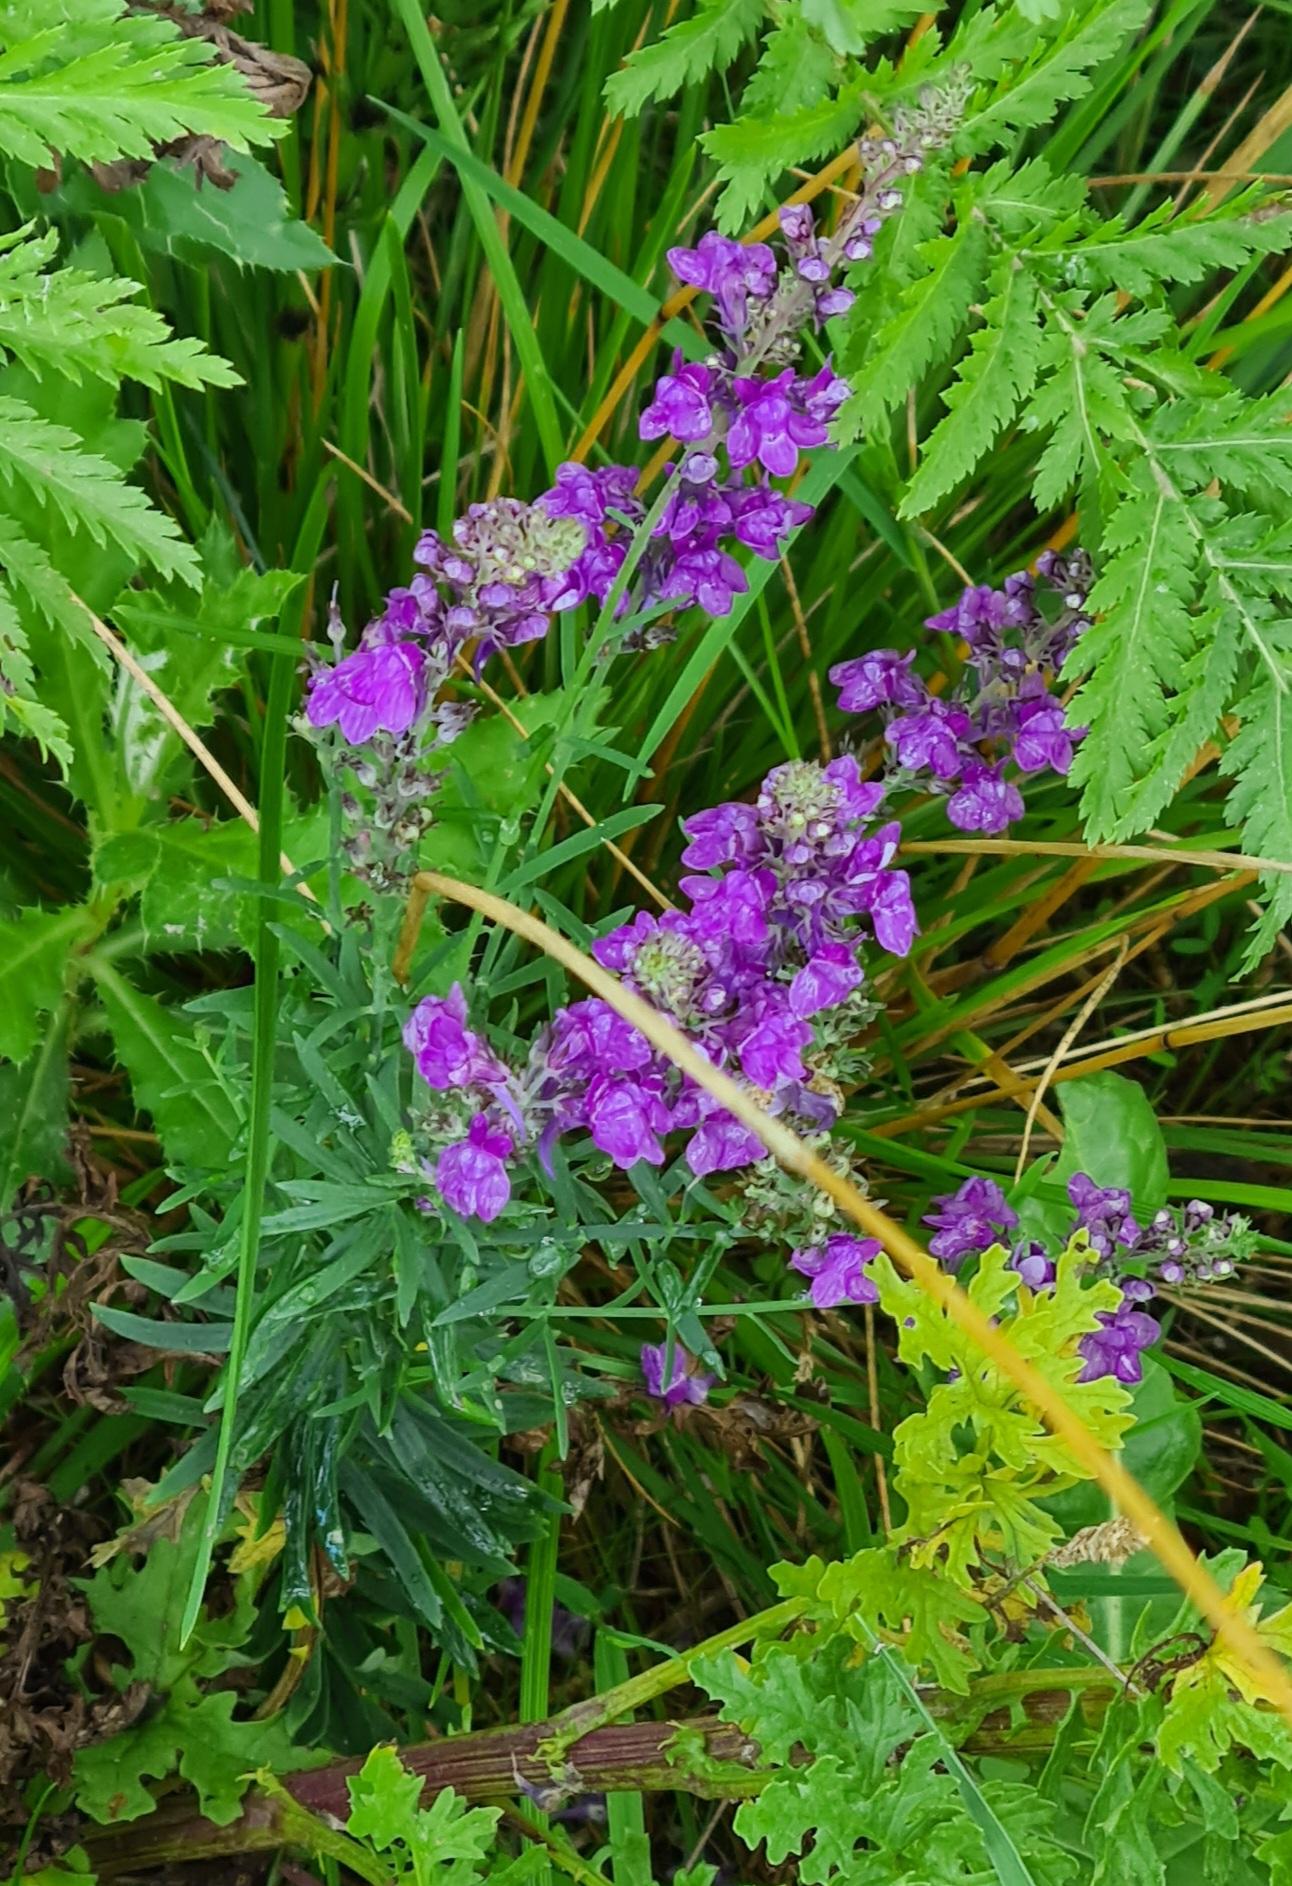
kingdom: Plantae
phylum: Tracheophyta
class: Magnoliopsida
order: Lamiales
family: Plantaginaceae
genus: Linaria
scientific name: Linaria purpurea
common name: Purpur-torskemund
